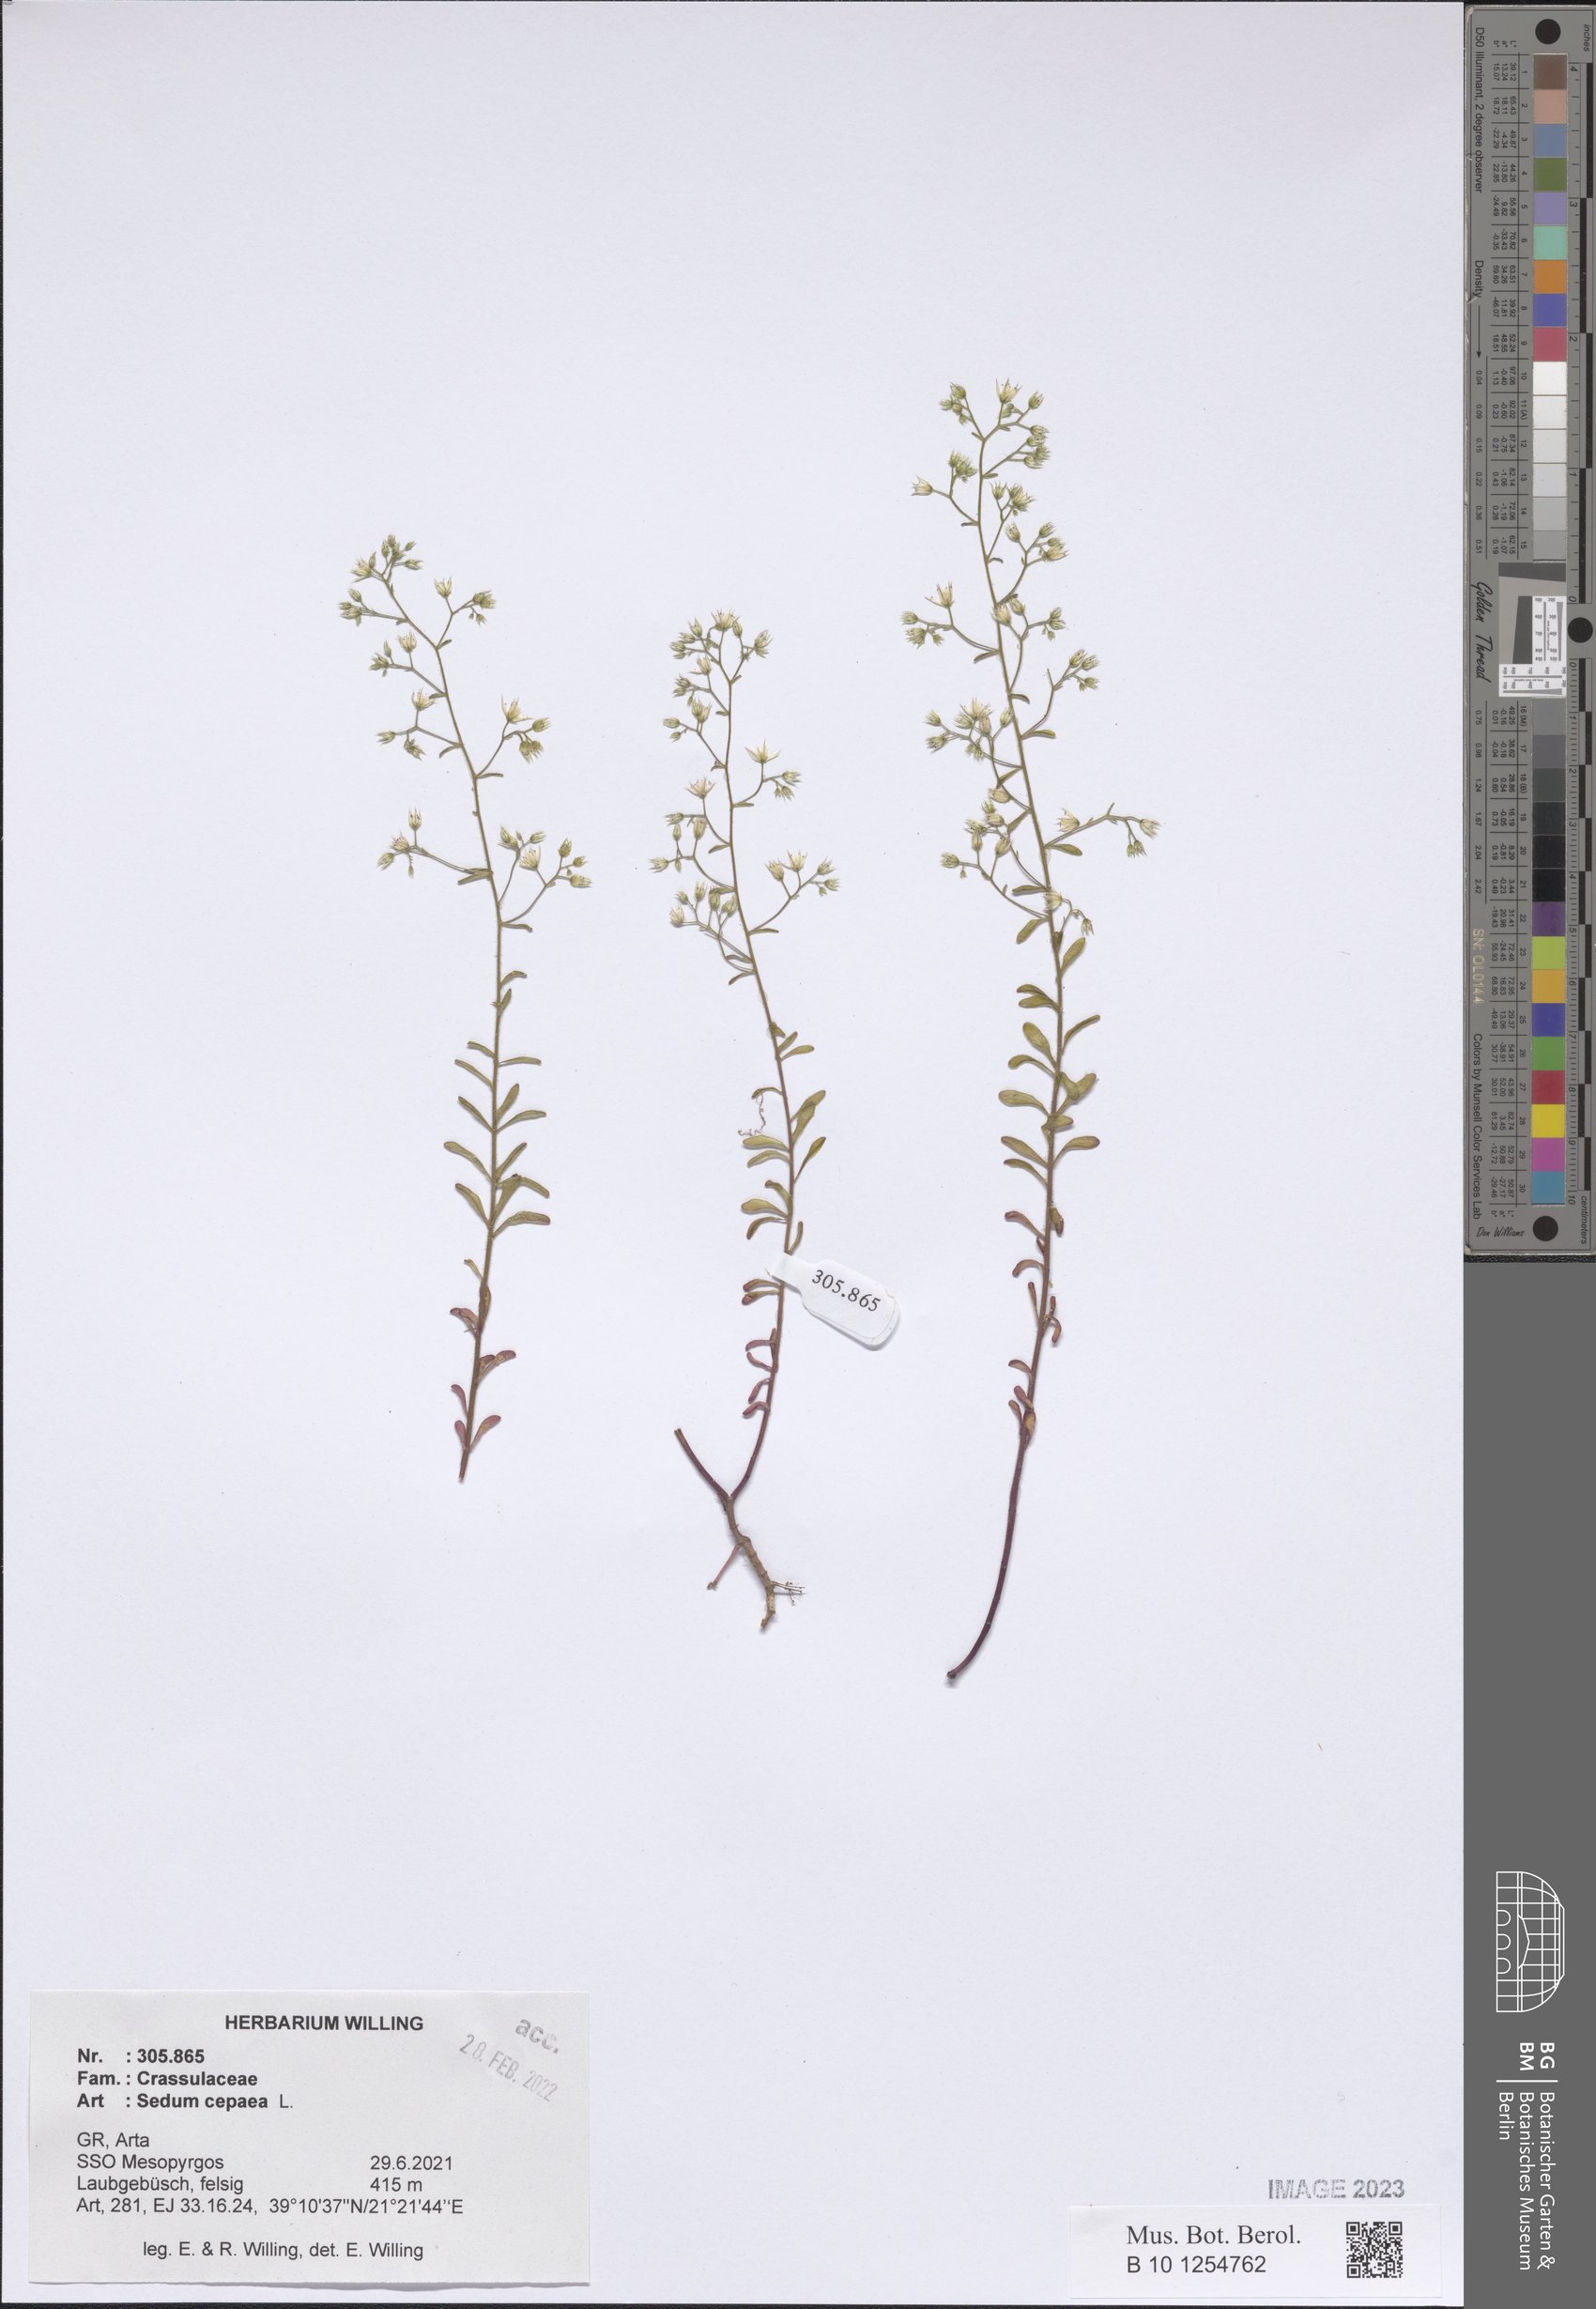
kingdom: Plantae
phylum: Tracheophyta
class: Magnoliopsida
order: Saxifragales
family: Crassulaceae
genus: Sedum
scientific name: Sedum cepaea
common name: Pink stonecrop
